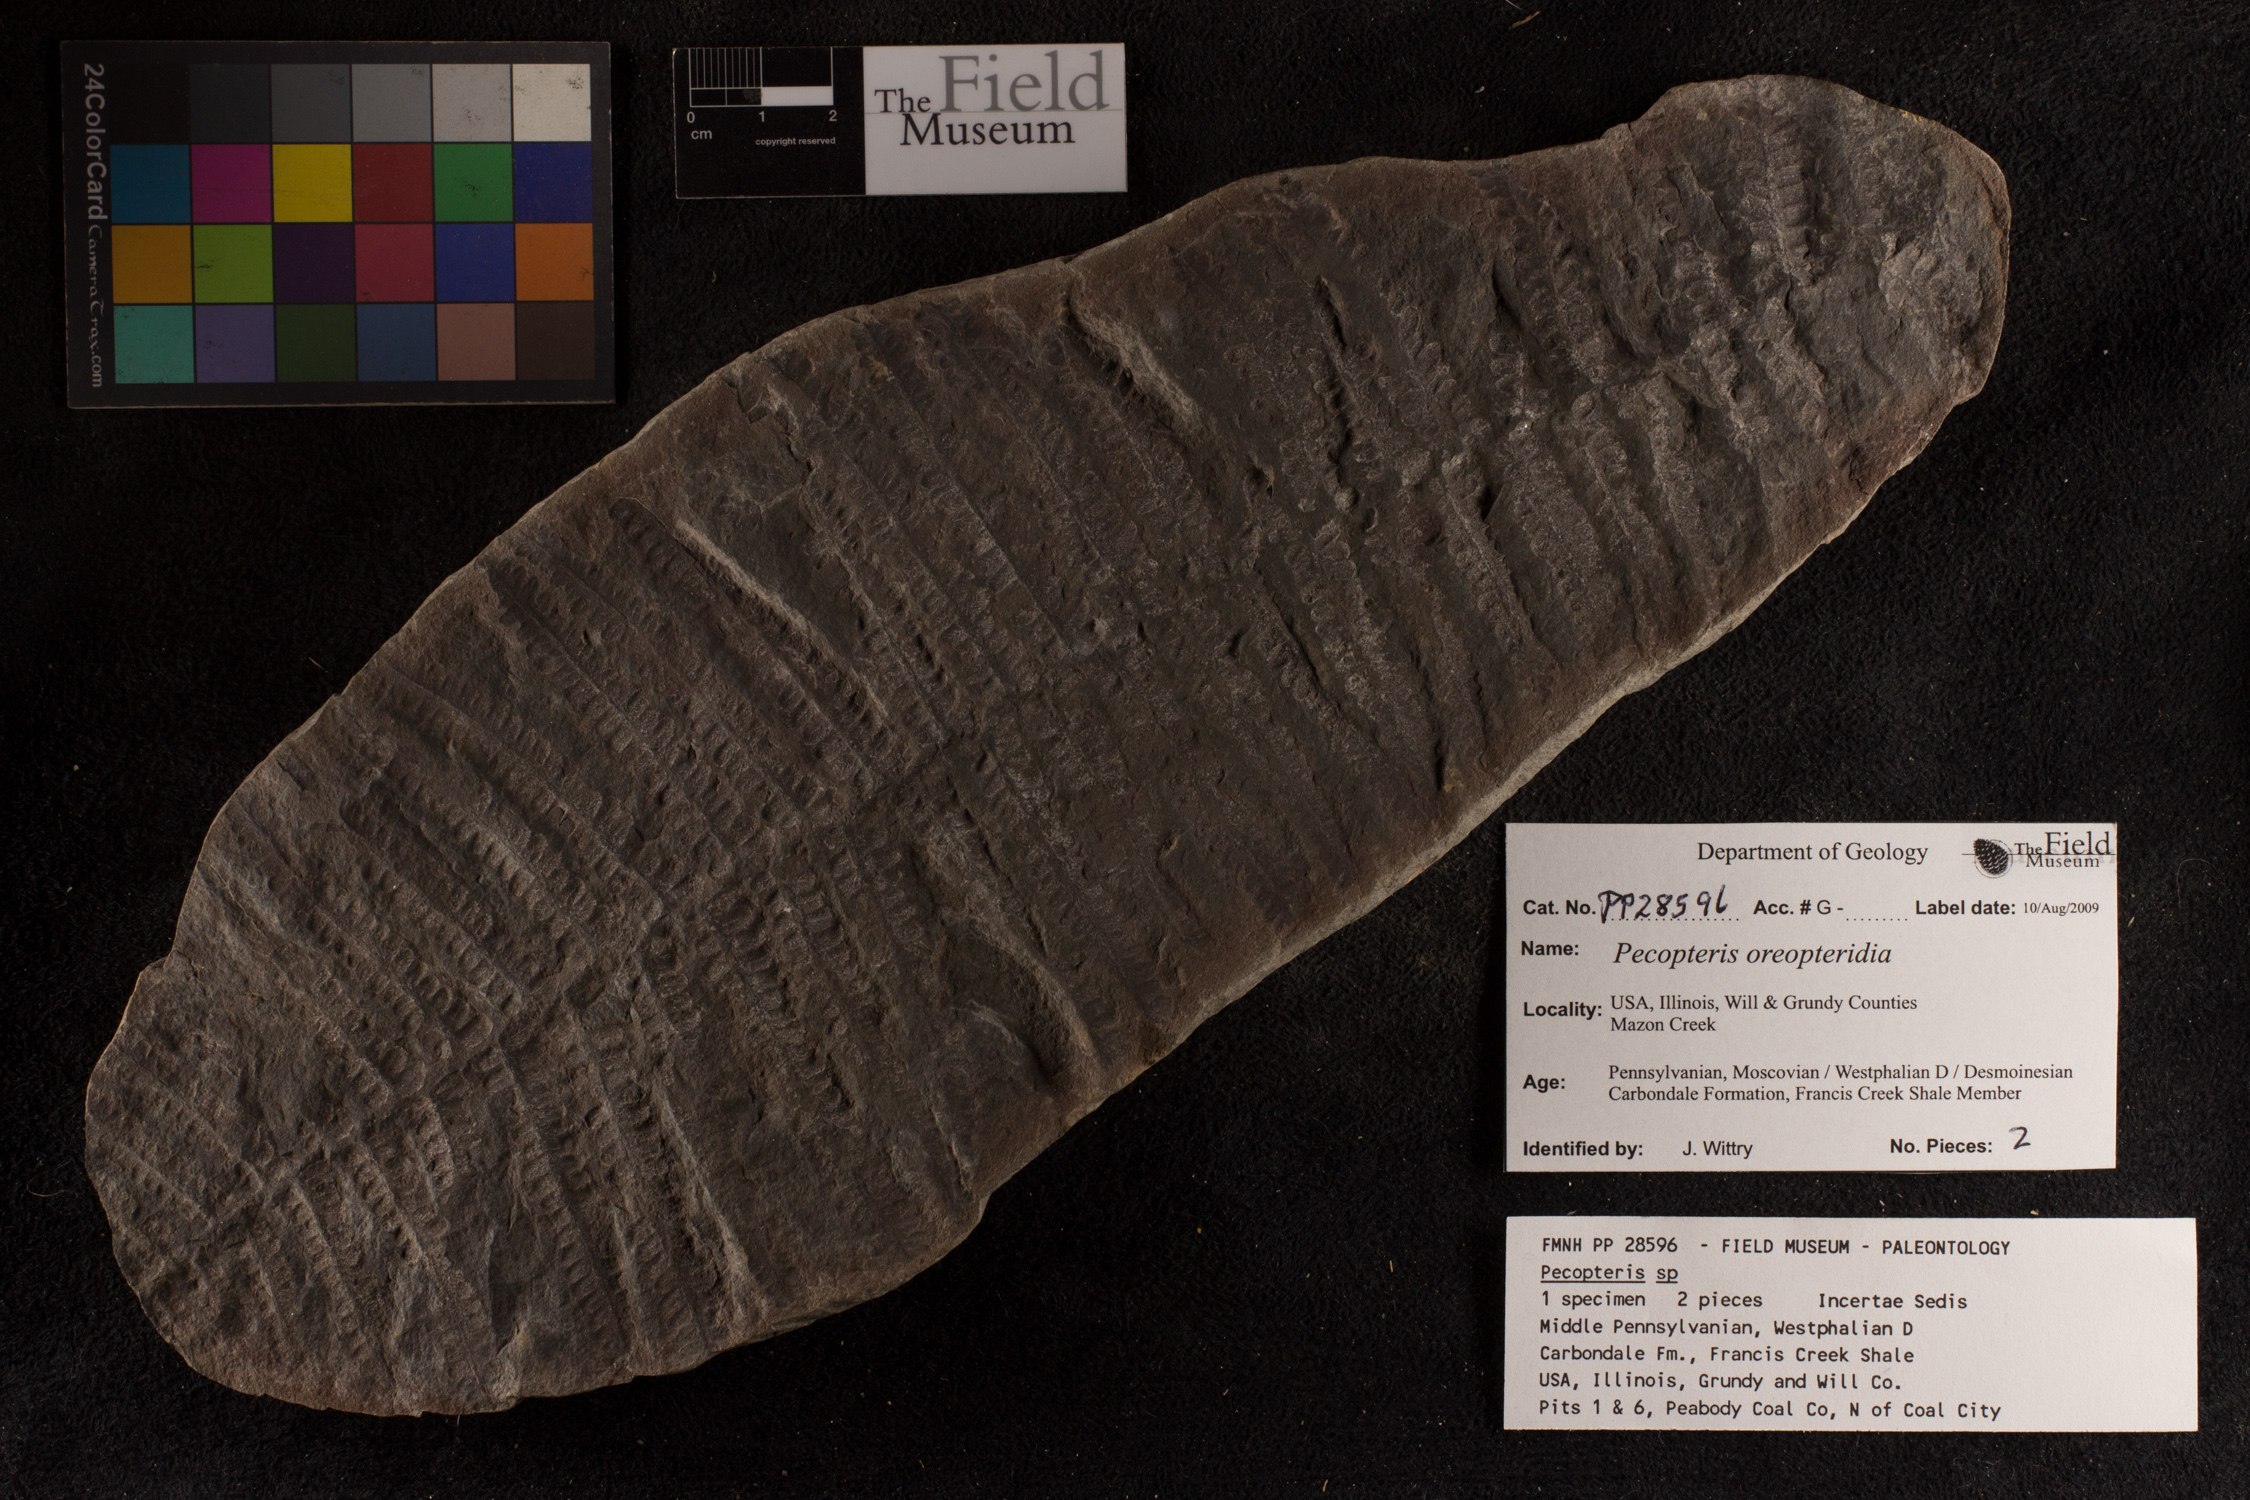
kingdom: Plantae
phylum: Tracheophyta
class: Lycopodiopsida
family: Cyclostigmataceae
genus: Knorria
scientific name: Knorria
